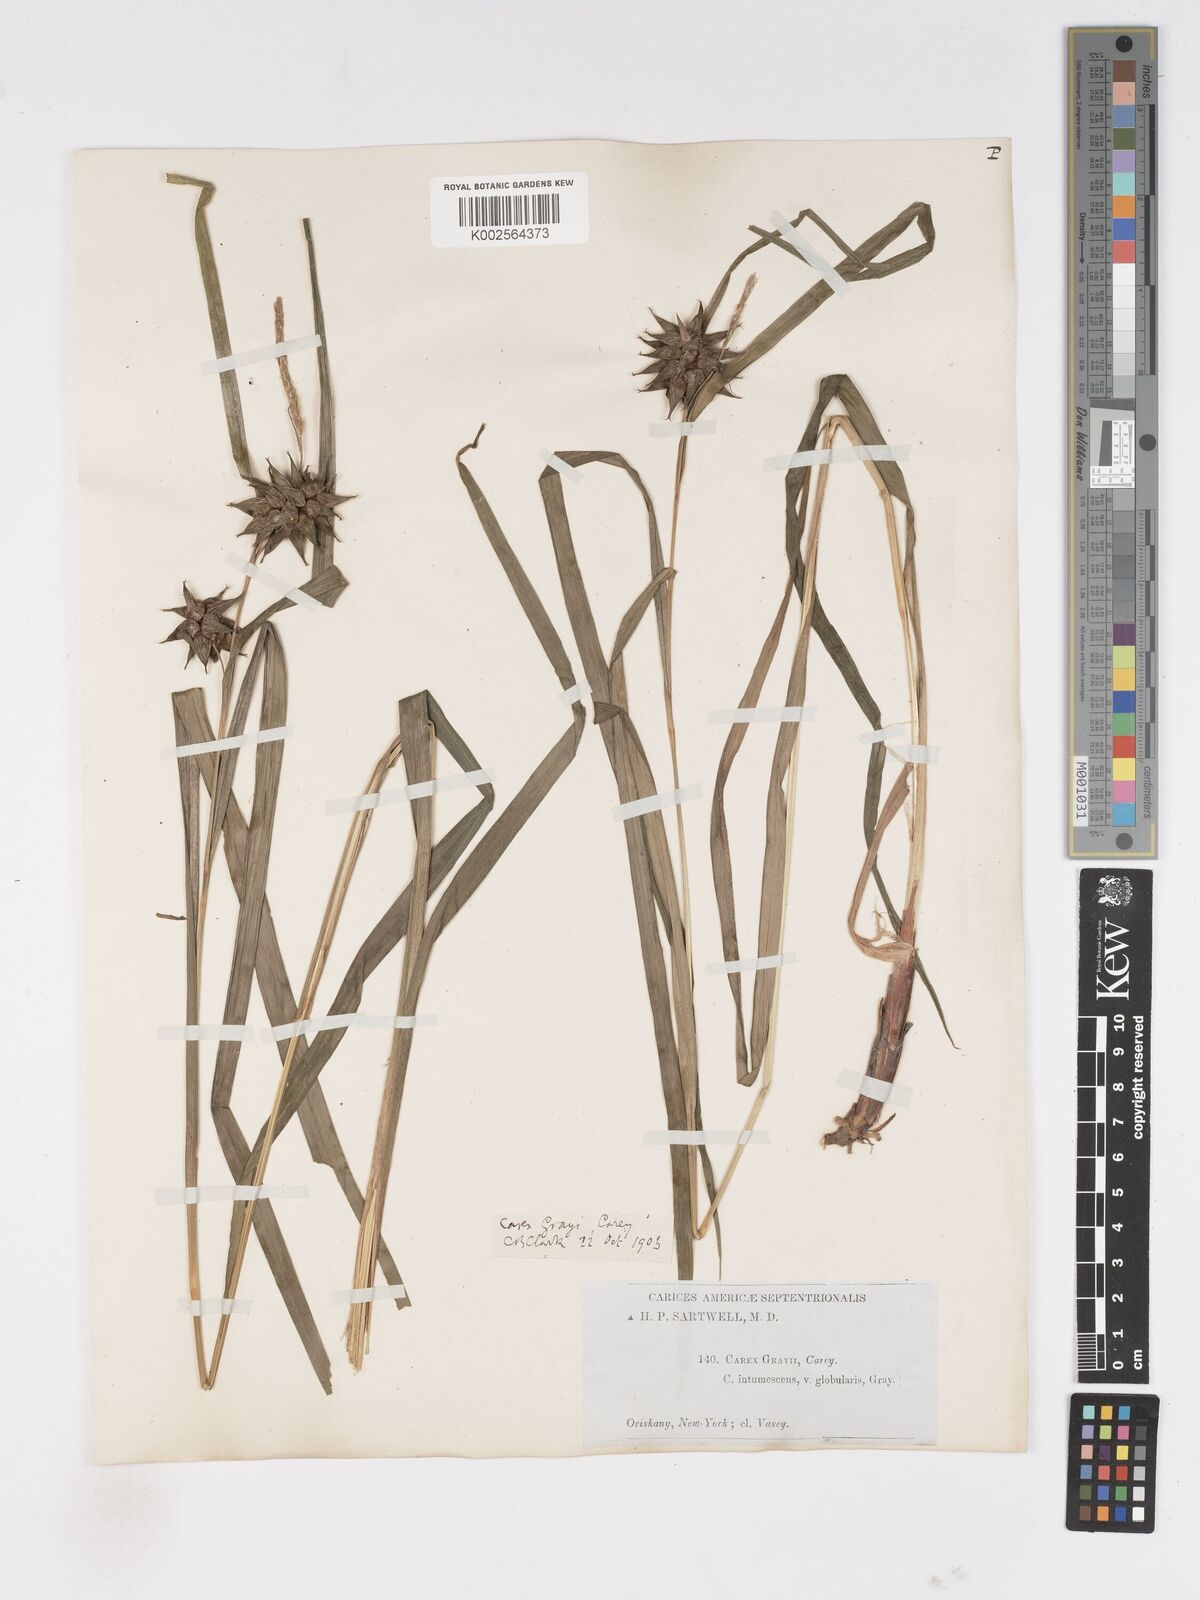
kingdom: Plantae
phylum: Tracheophyta
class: Liliopsida
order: Poales
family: Cyperaceae
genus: Carex
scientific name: Carex grayi
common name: Asa gray's sedge
